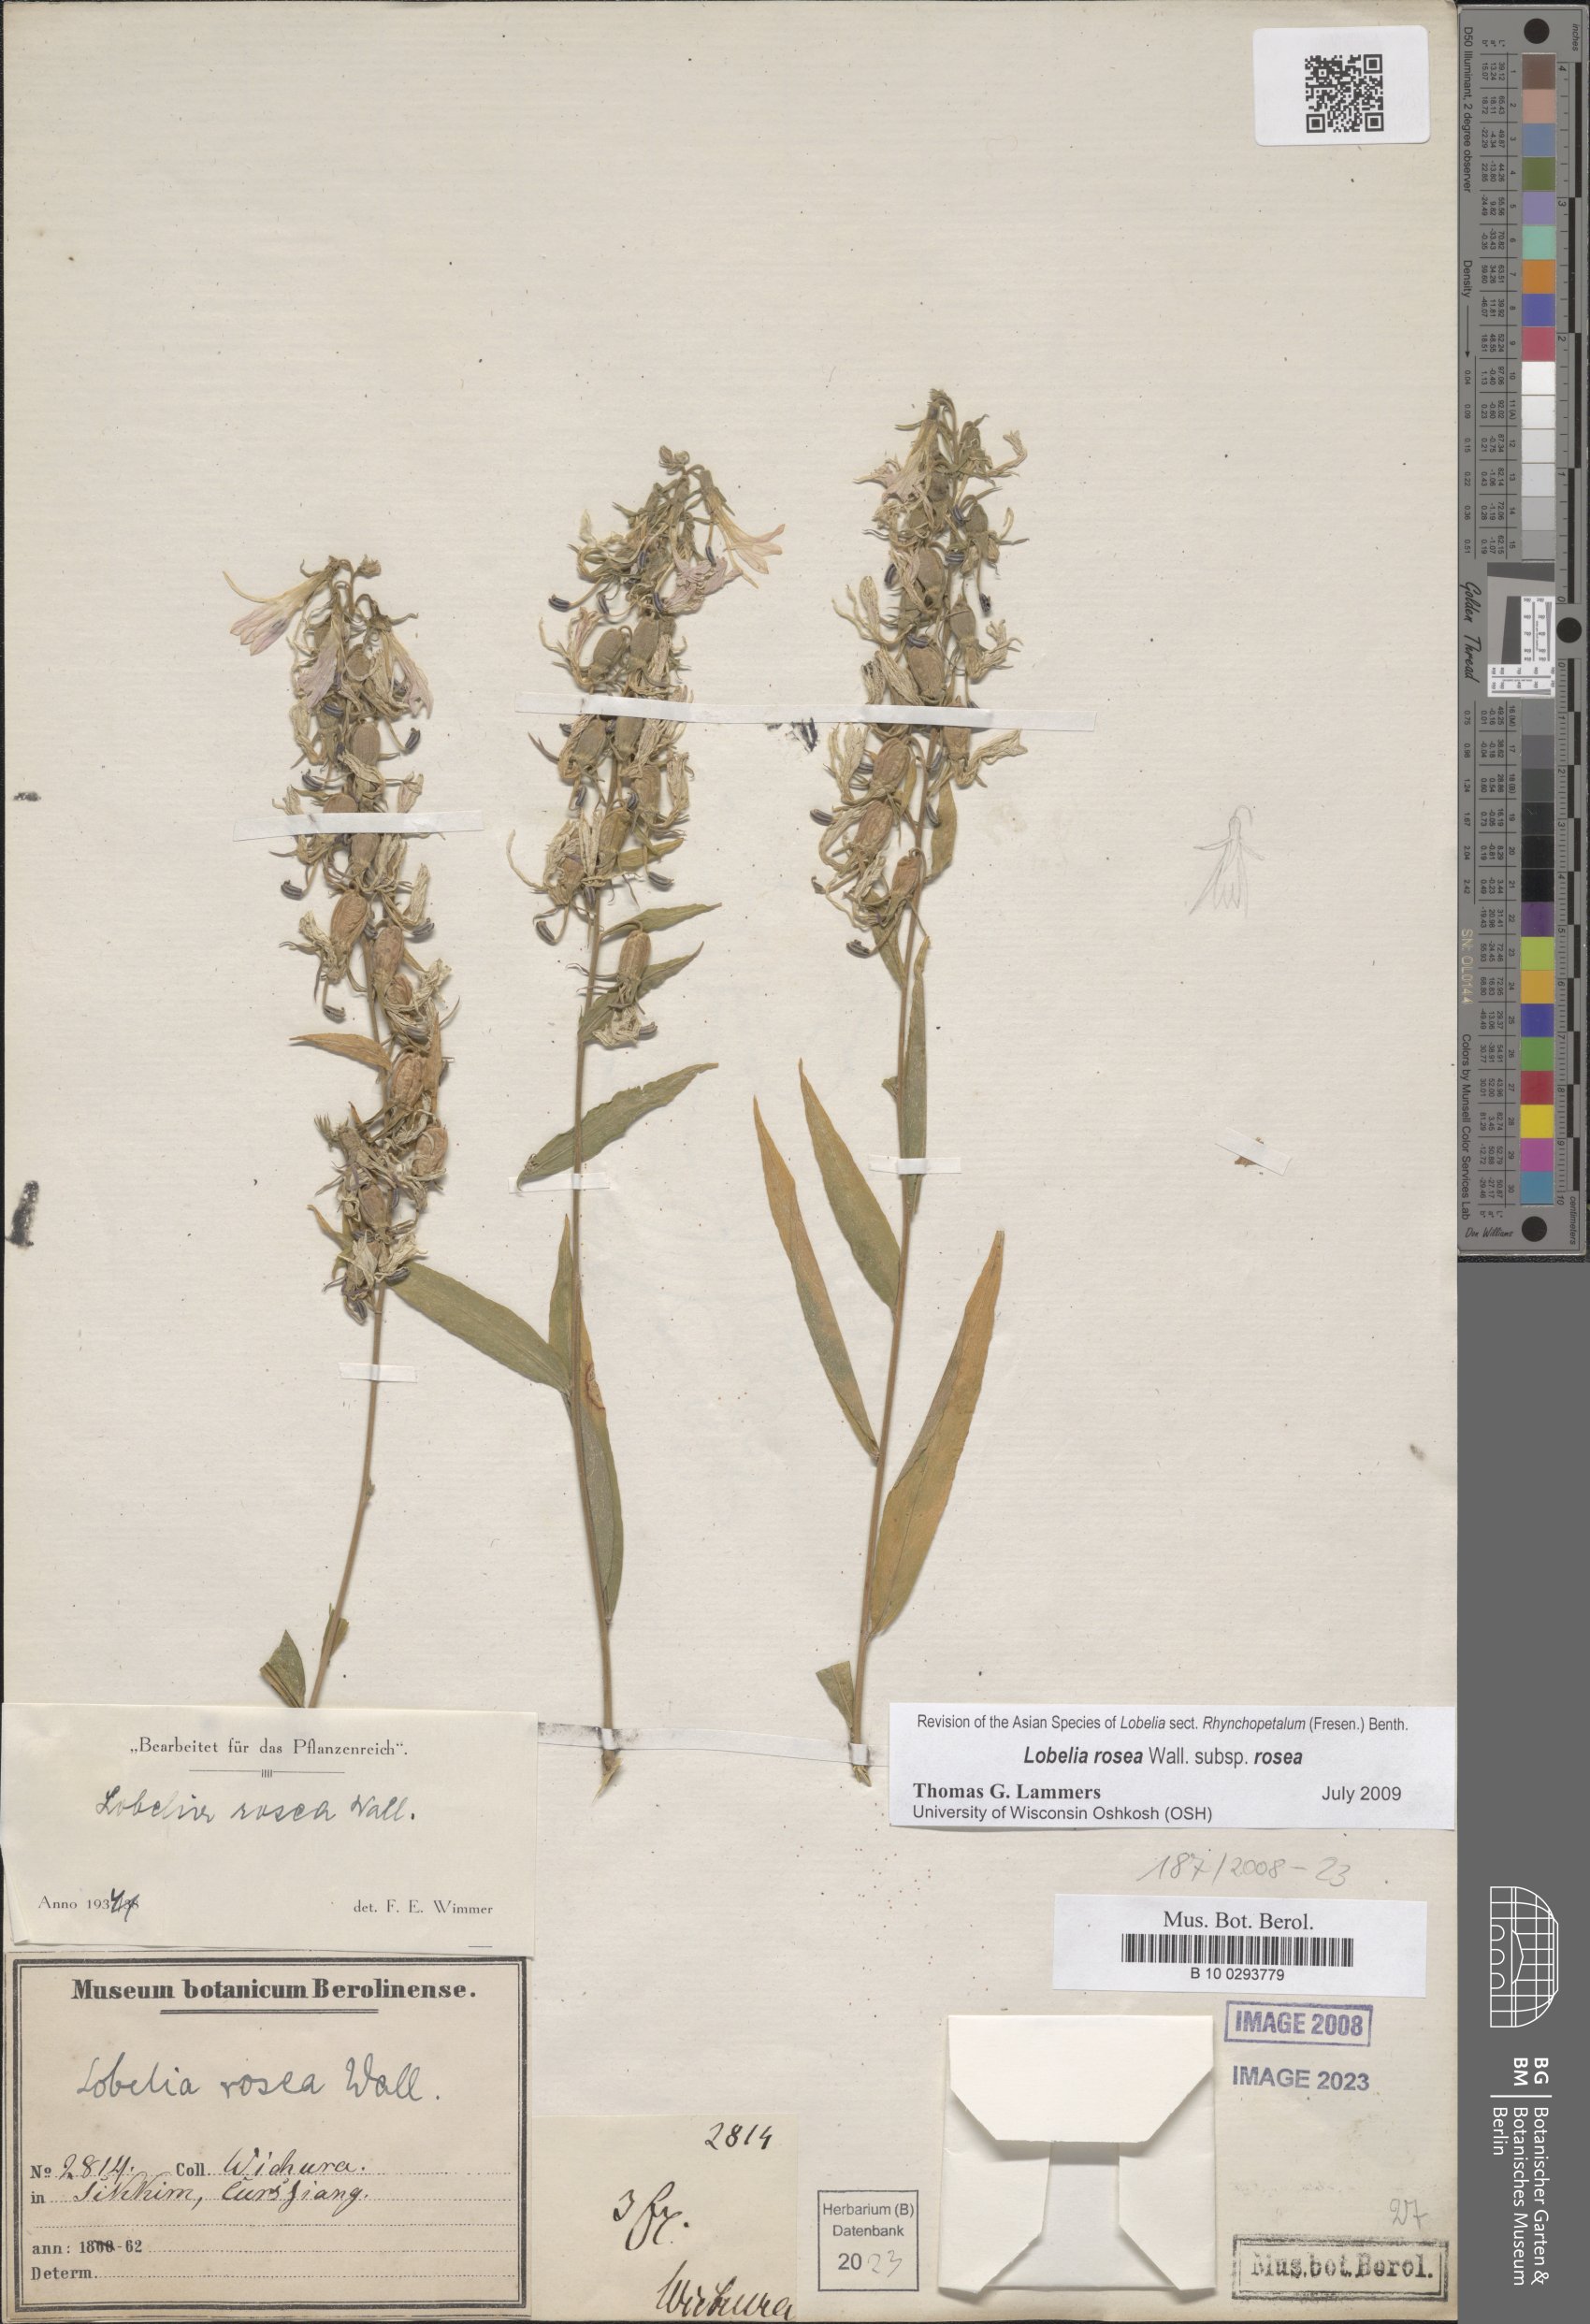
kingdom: Plantae
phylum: Tracheophyta
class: Magnoliopsida
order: Asterales
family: Campanulaceae
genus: Lobelia
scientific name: Lobelia rosea
